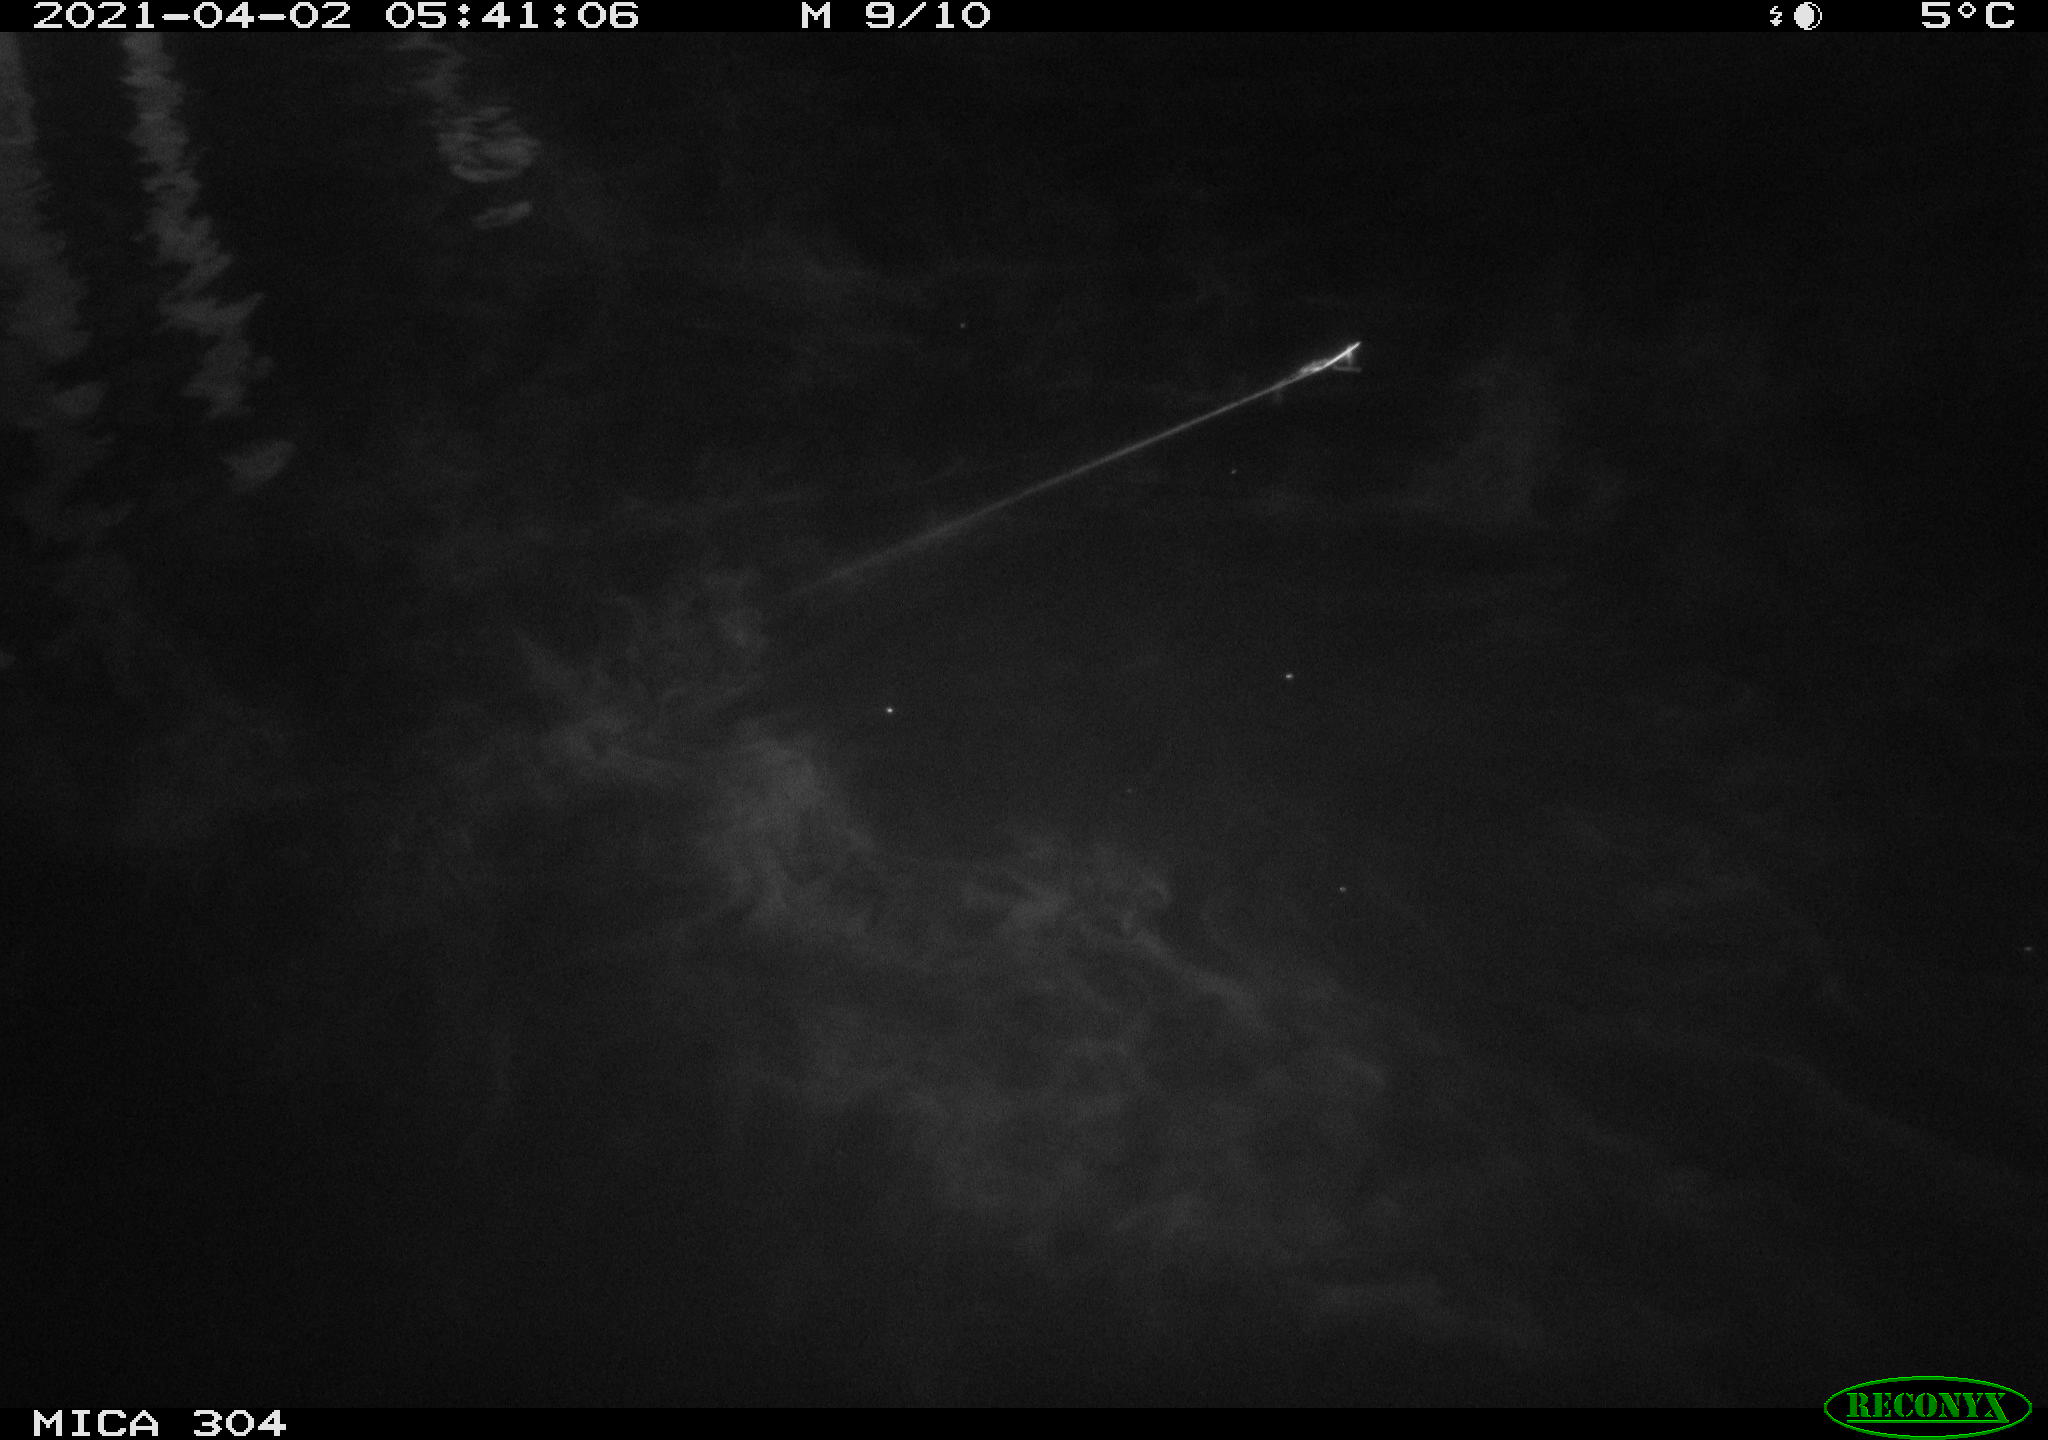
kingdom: Animalia
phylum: Chordata
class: Aves
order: Anseriformes
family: Anatidae
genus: Anas
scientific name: Anas
